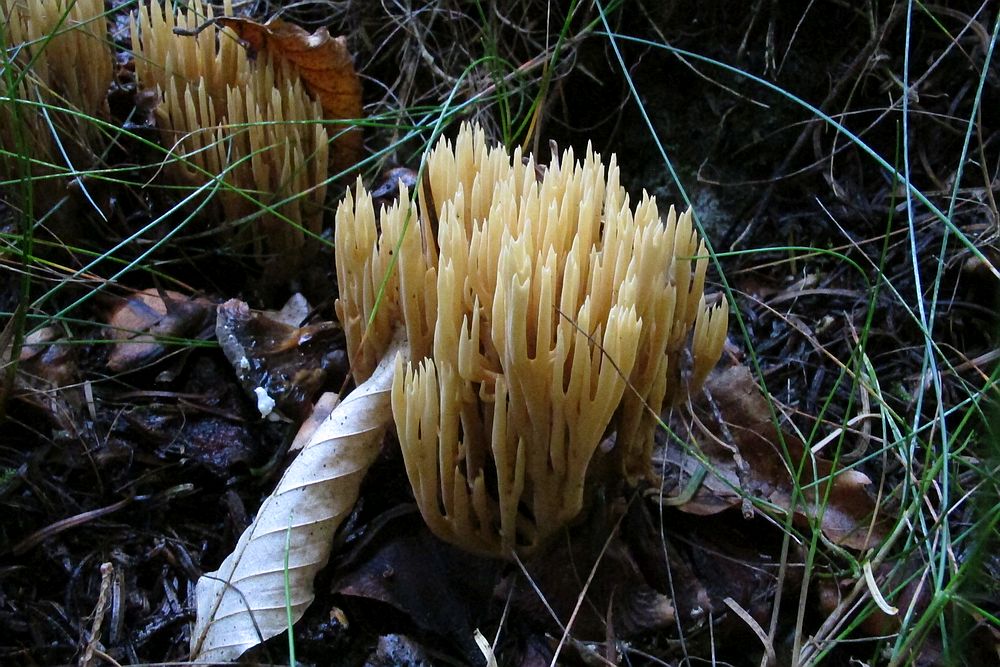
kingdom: Fungi
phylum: Basidiomycota
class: Agaricomycetes
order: Gomphales
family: Gomphaceae
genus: Phaeoclavulina
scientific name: Phaeoclavulina eumorpha
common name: gran-koralsvamp
